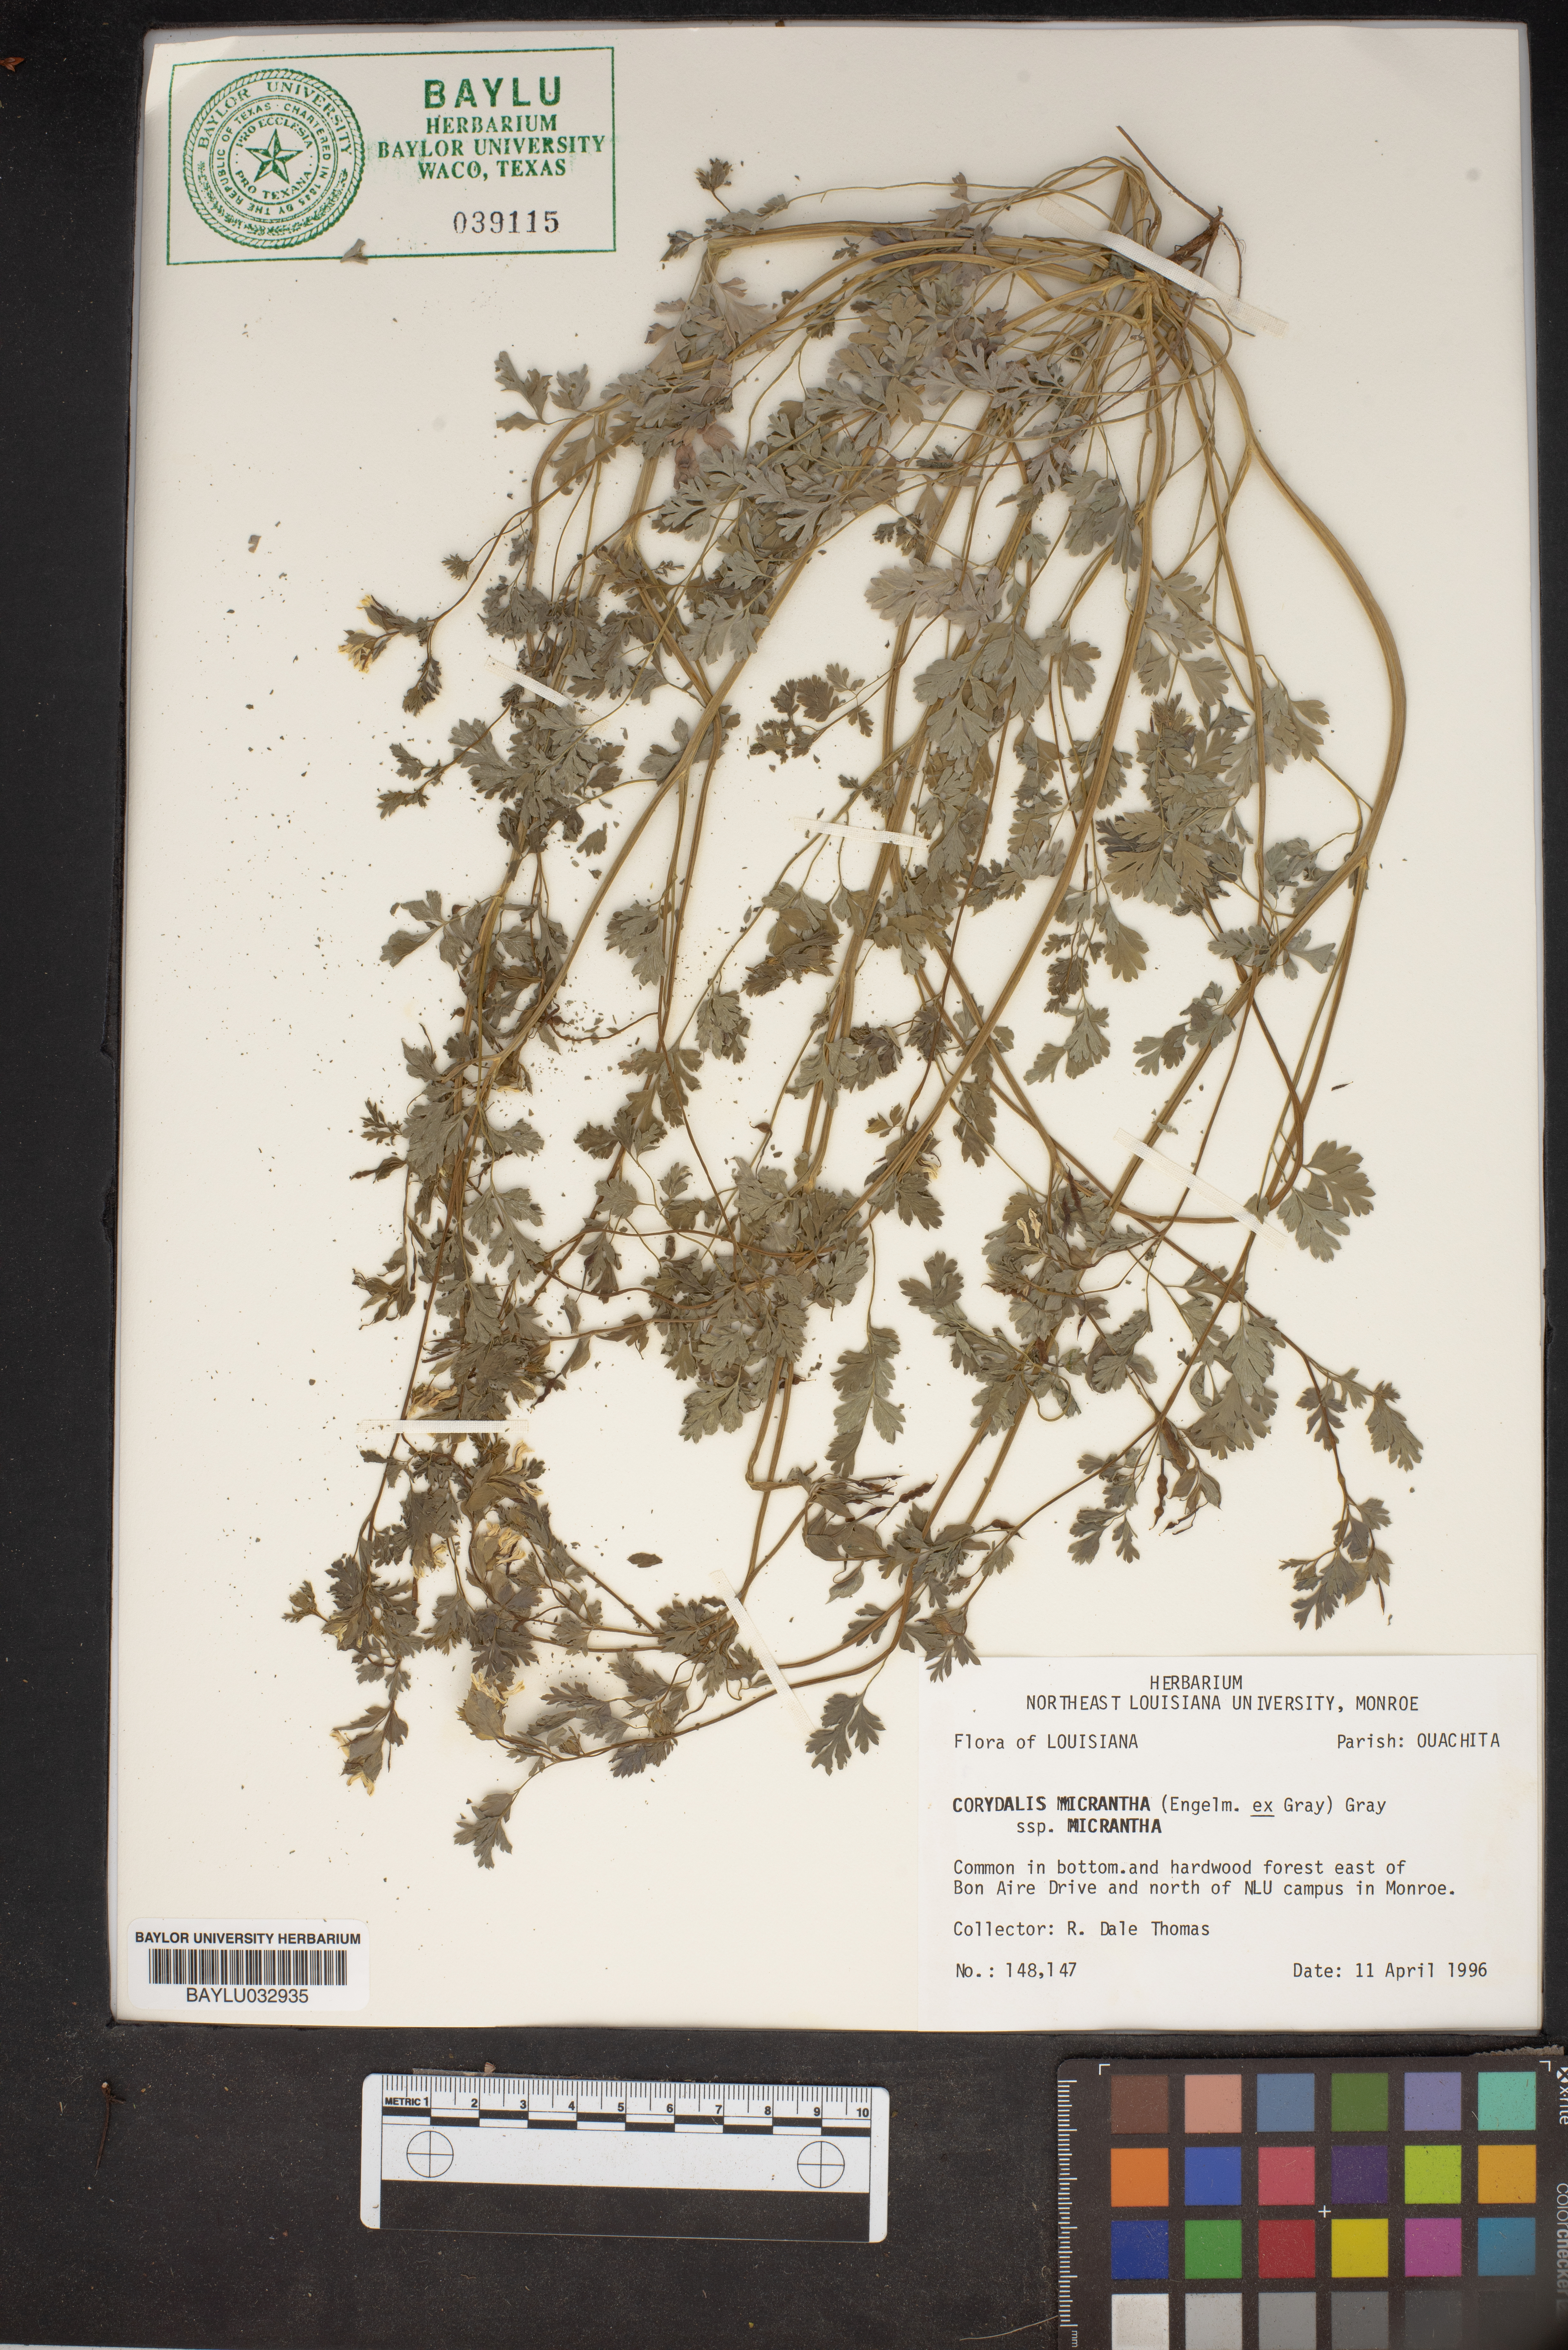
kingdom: Plantae
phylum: Tracheophyta
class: Magnoliopsida
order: Ranunculales
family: Papaveraceae
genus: Corydalis
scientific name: Corydalis micrantha
